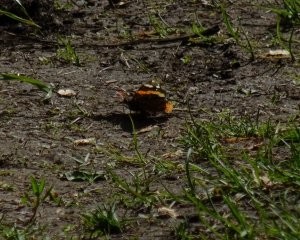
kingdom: Animalia
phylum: Arthropoda
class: Insecta
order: Lepidoptera
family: Nymphalidae
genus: Vanessa
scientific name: Vanessa atalanta
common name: Red Admiral
